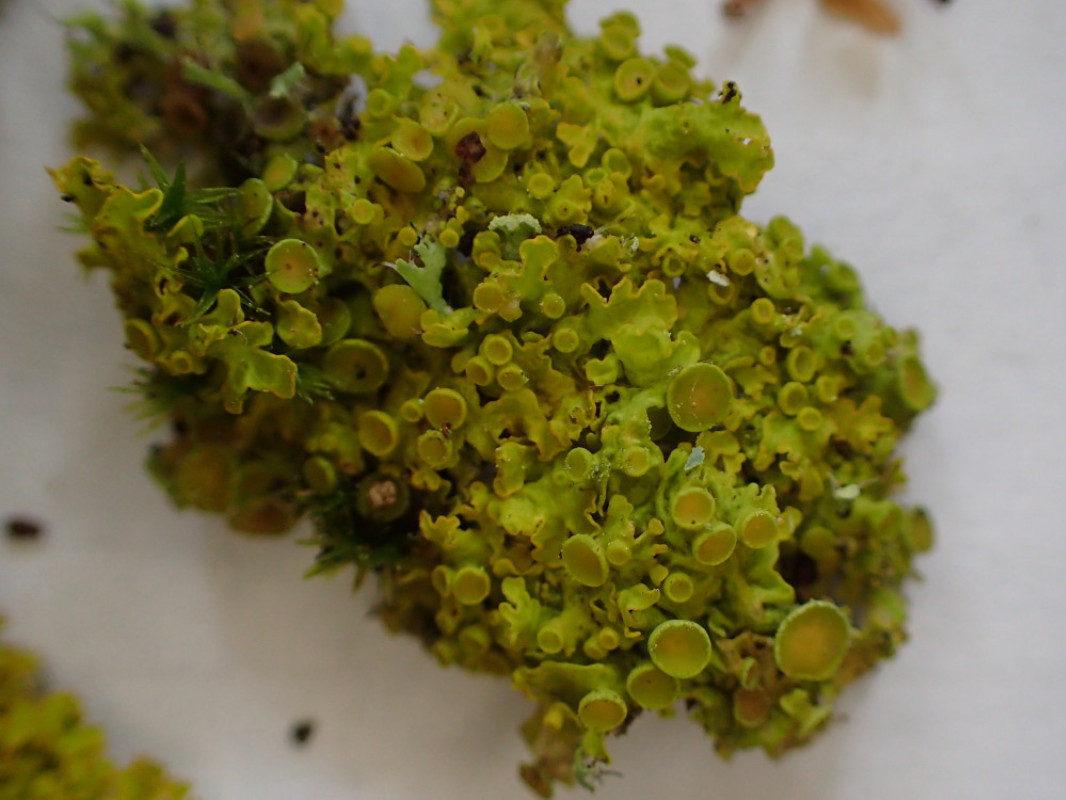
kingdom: Fungi
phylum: Ascomycota
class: Lecanoromycetes
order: Teloschistales
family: Teloschistaceae
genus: Polycauliona
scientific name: Polycauliona polycarpa
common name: mangefrugtet orangelav
